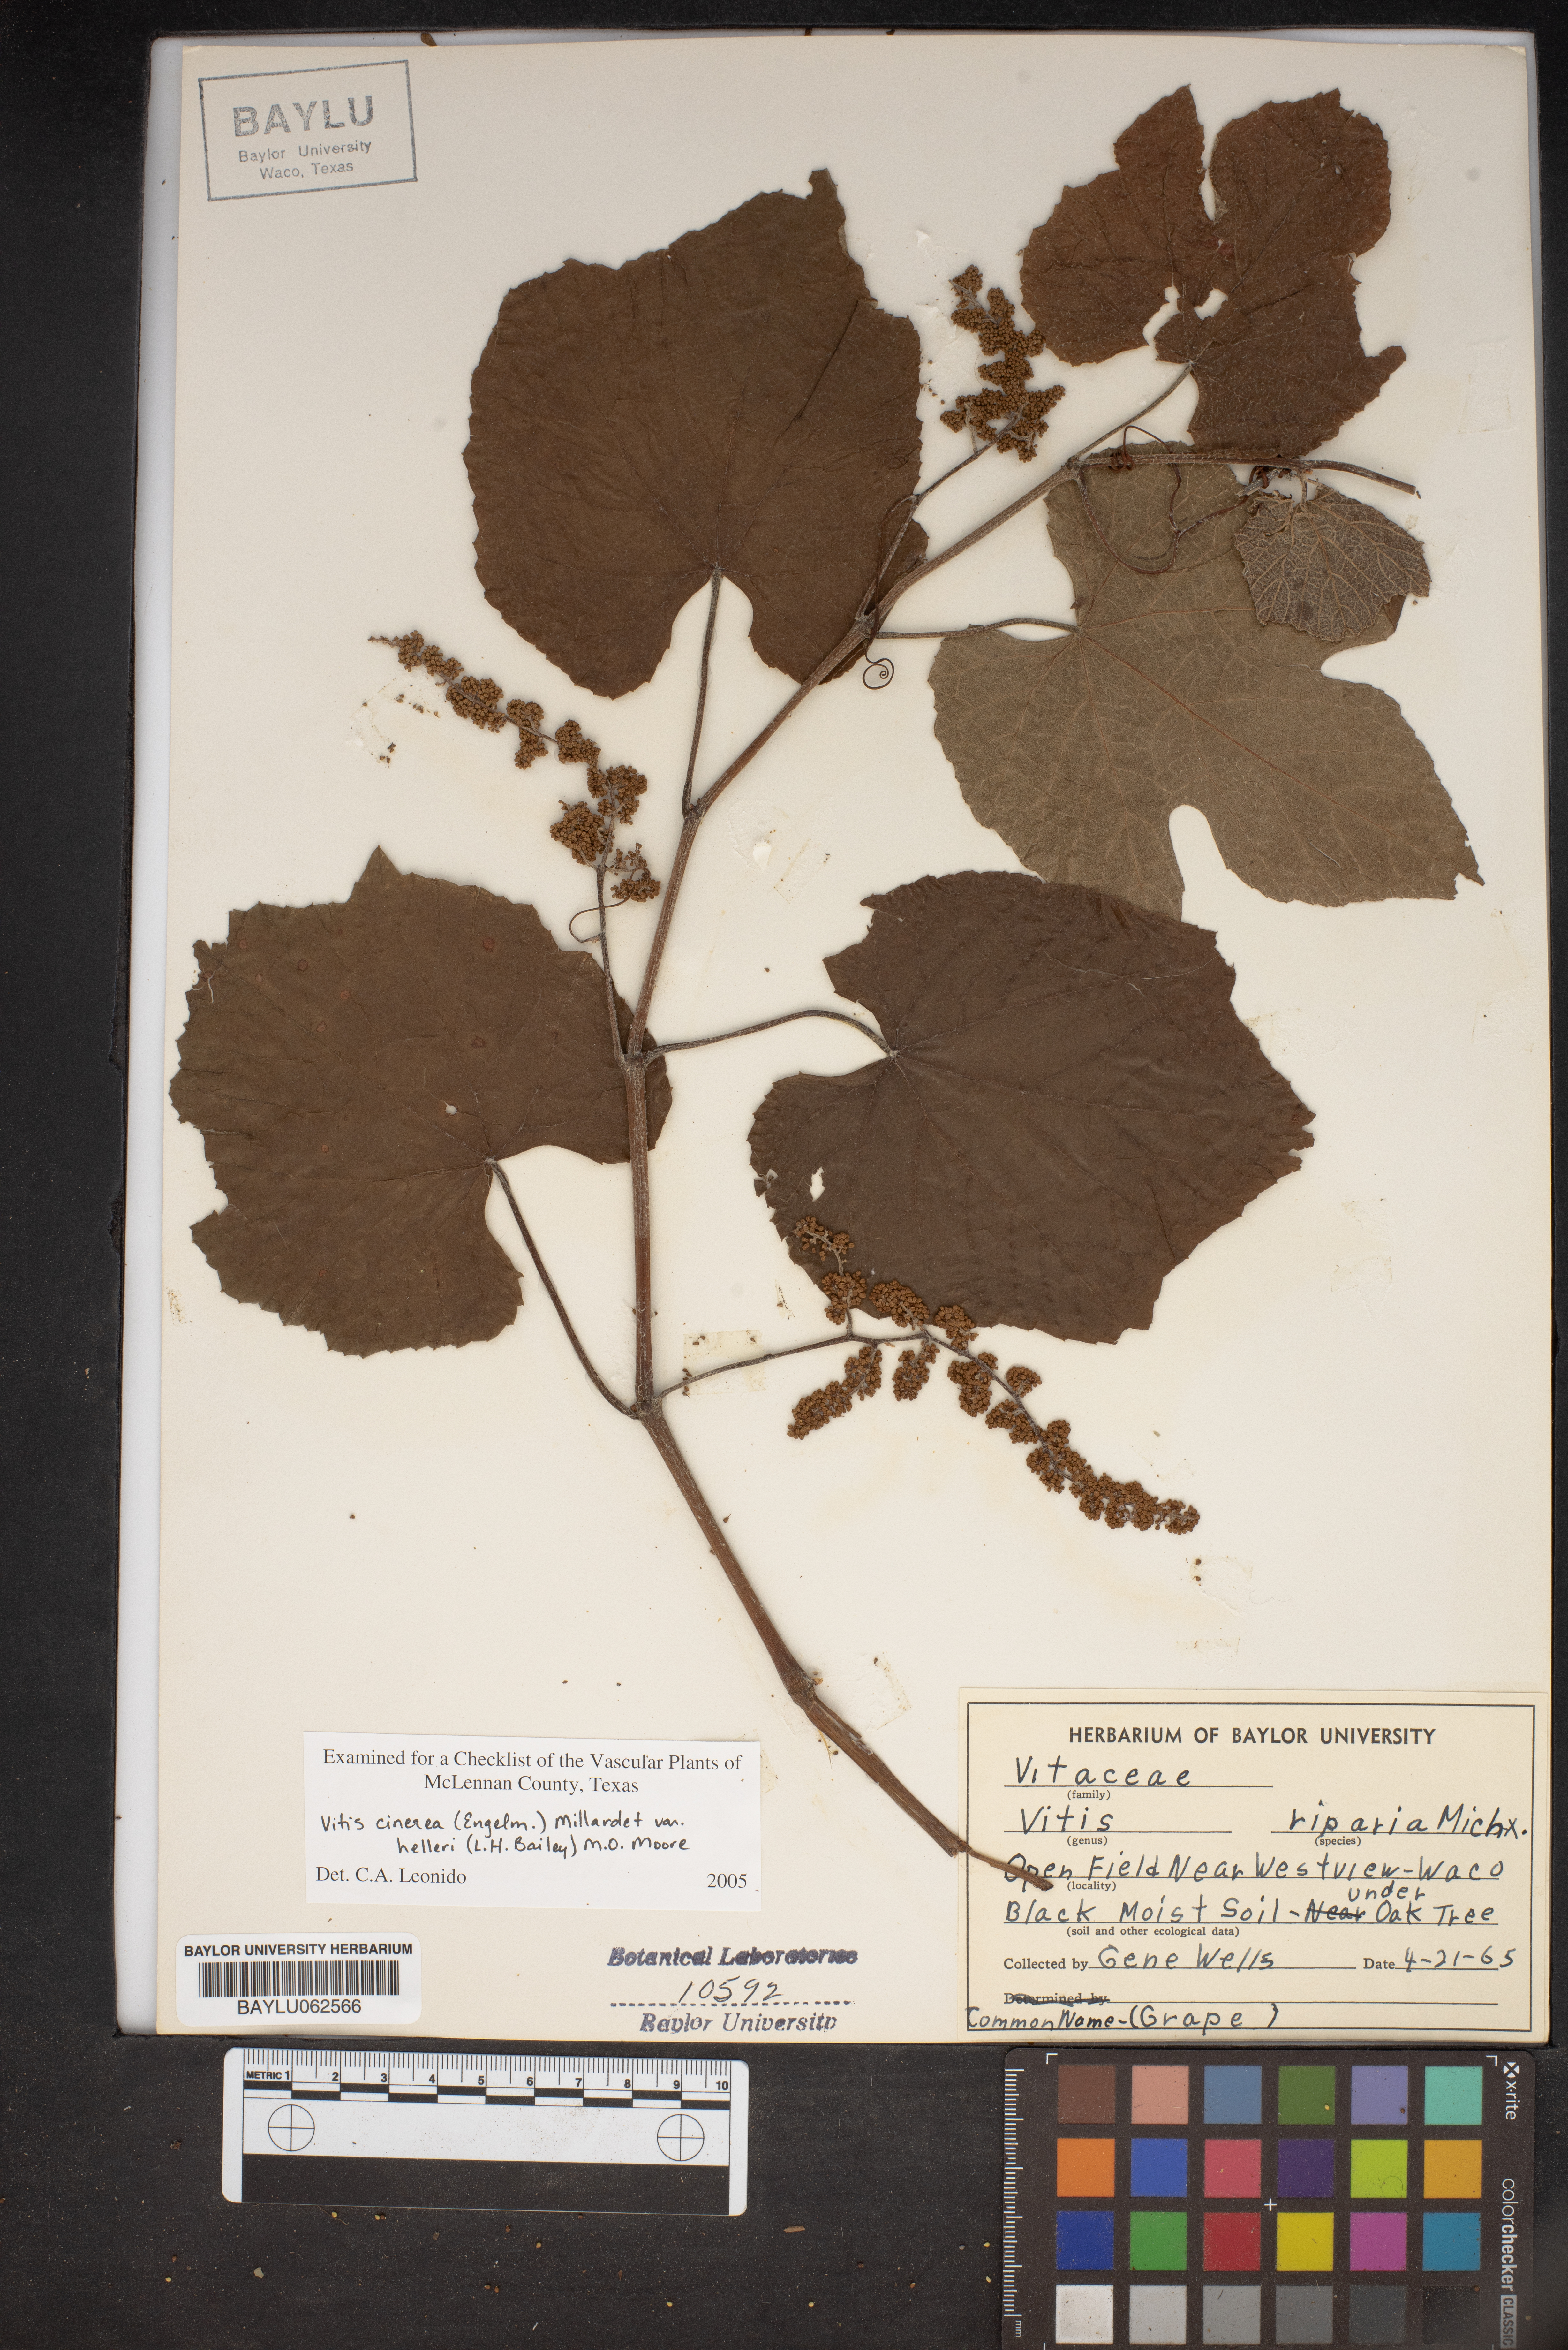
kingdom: Plantae
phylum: Tracheophyta
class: Magnoliopsida
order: Vitales
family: Vitaceae
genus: Vitis
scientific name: Vitis cinerea
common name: Ashy grape
